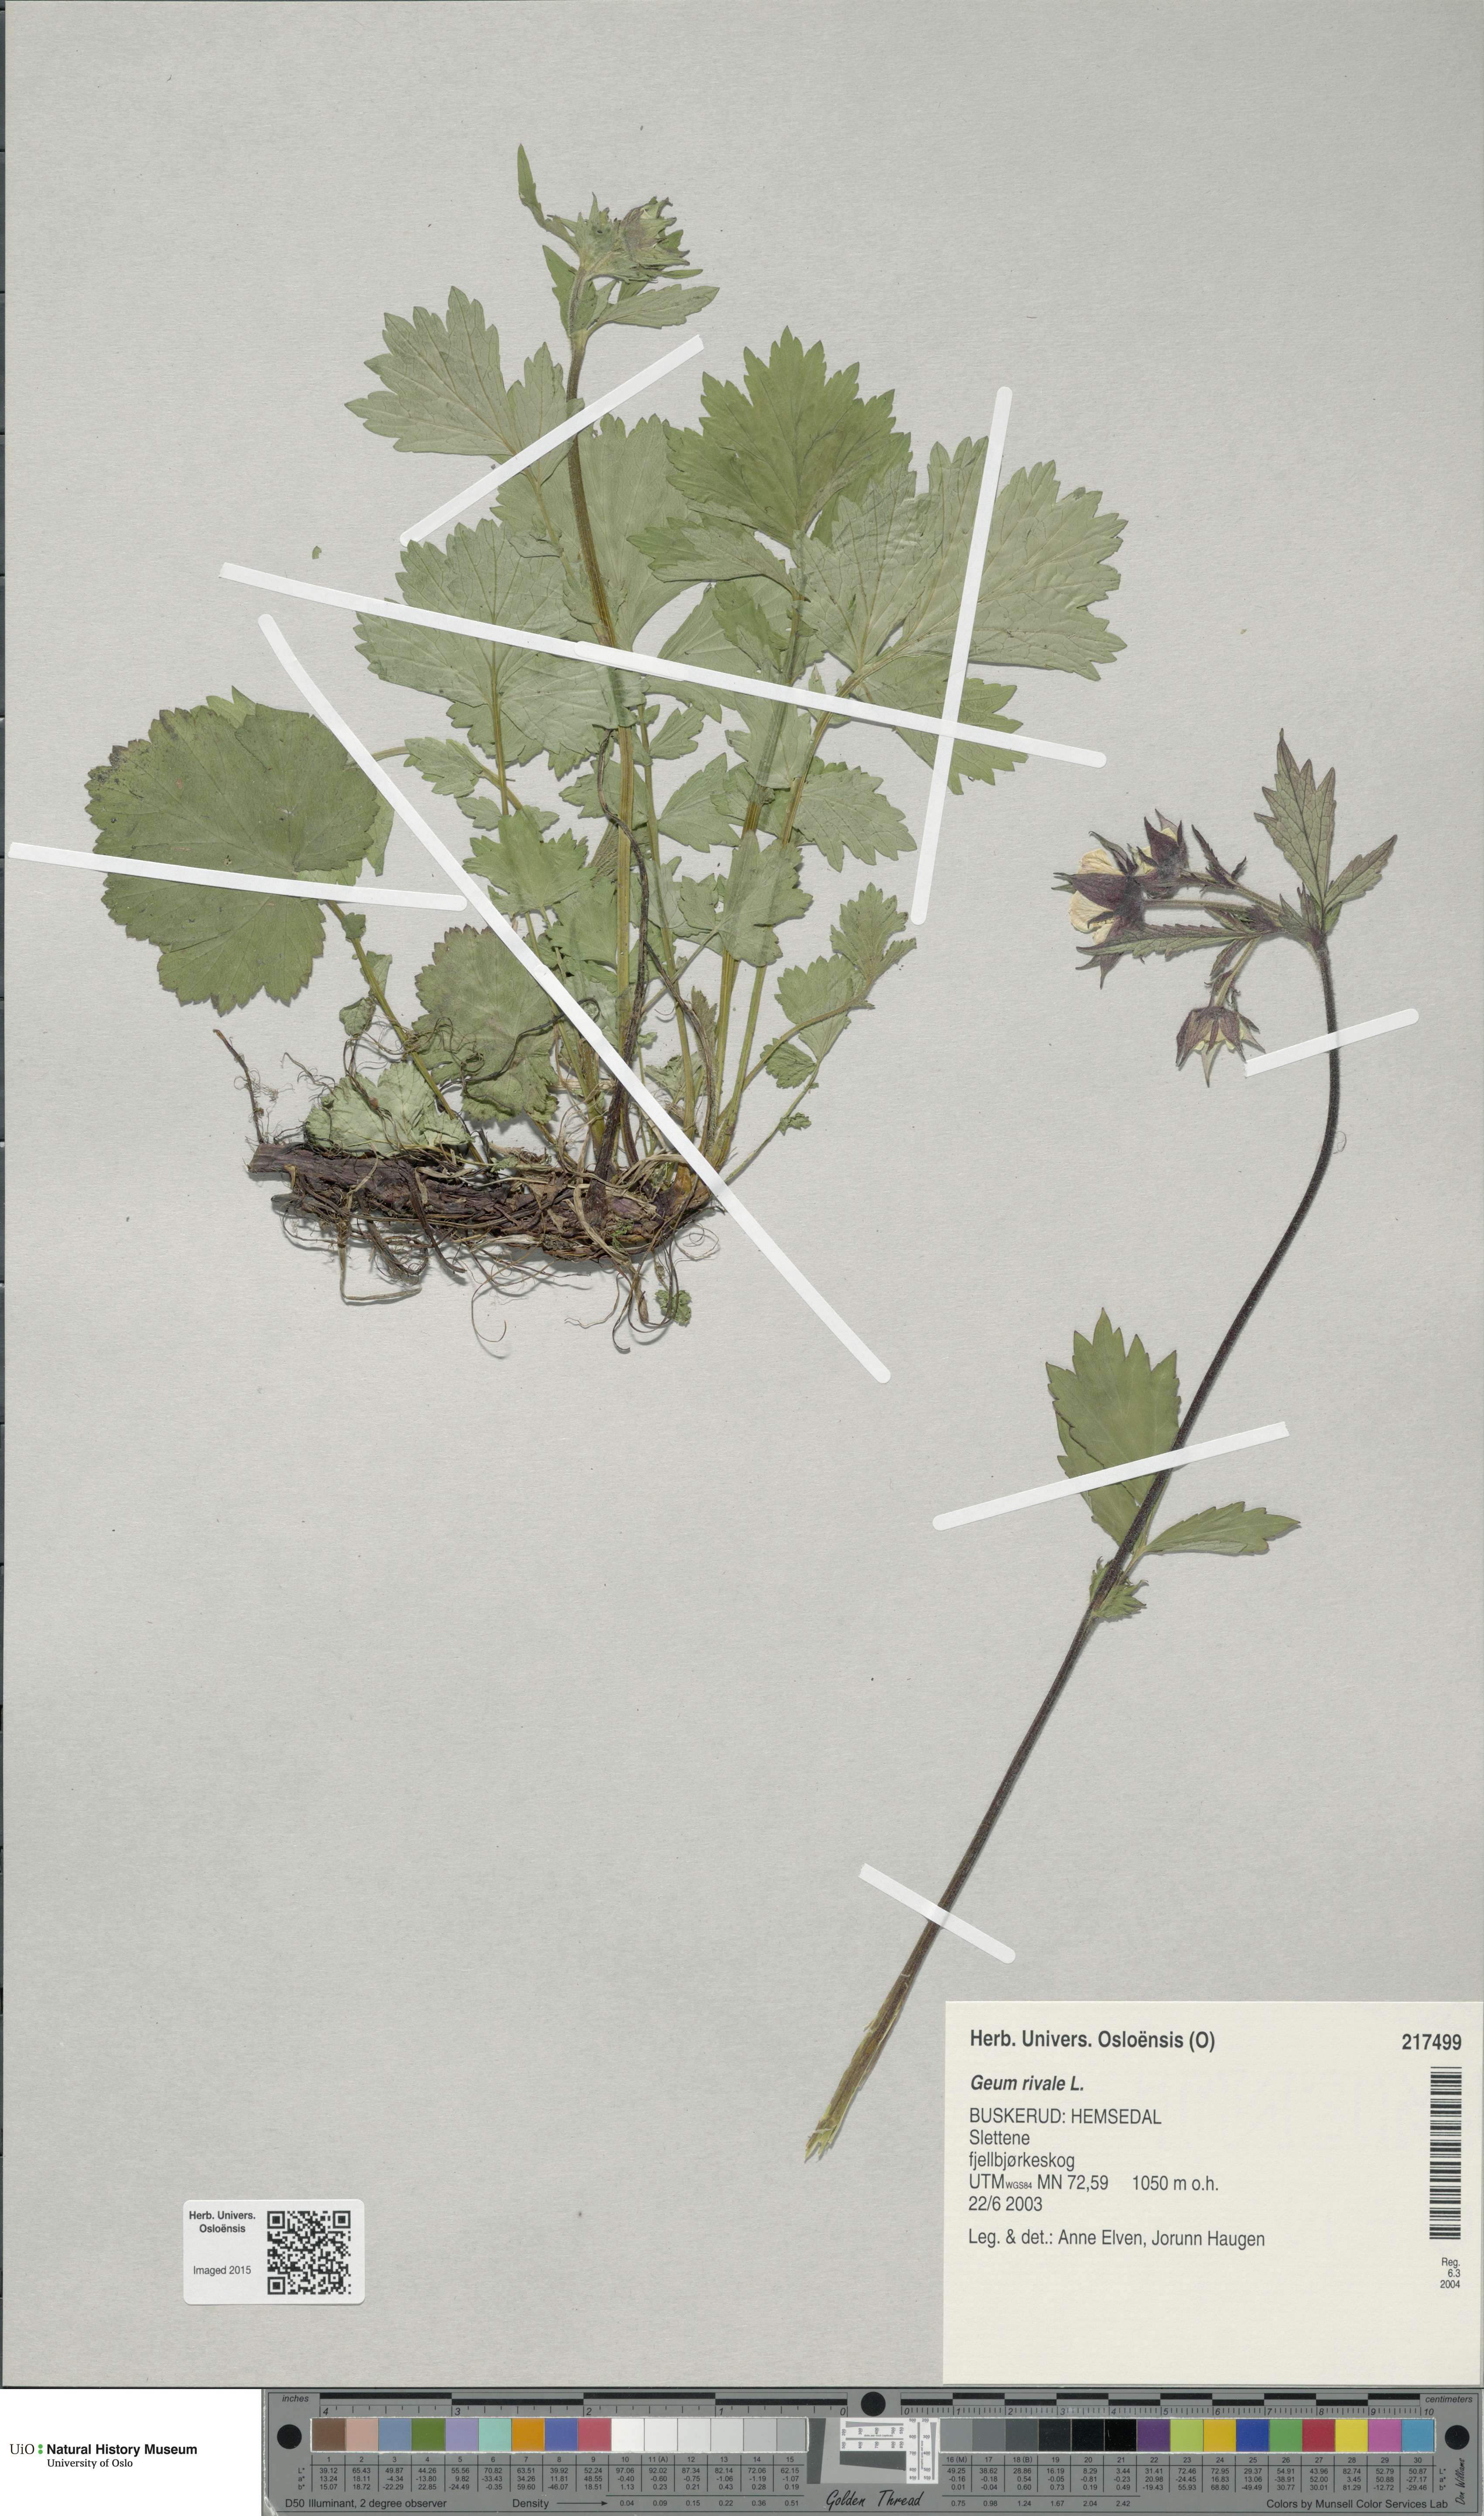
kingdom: Plantae
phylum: Tracheophyta
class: Magnoliopsida
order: Rosales
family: Rosaceae
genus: Geum
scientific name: Geum rivale
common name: Water avens
